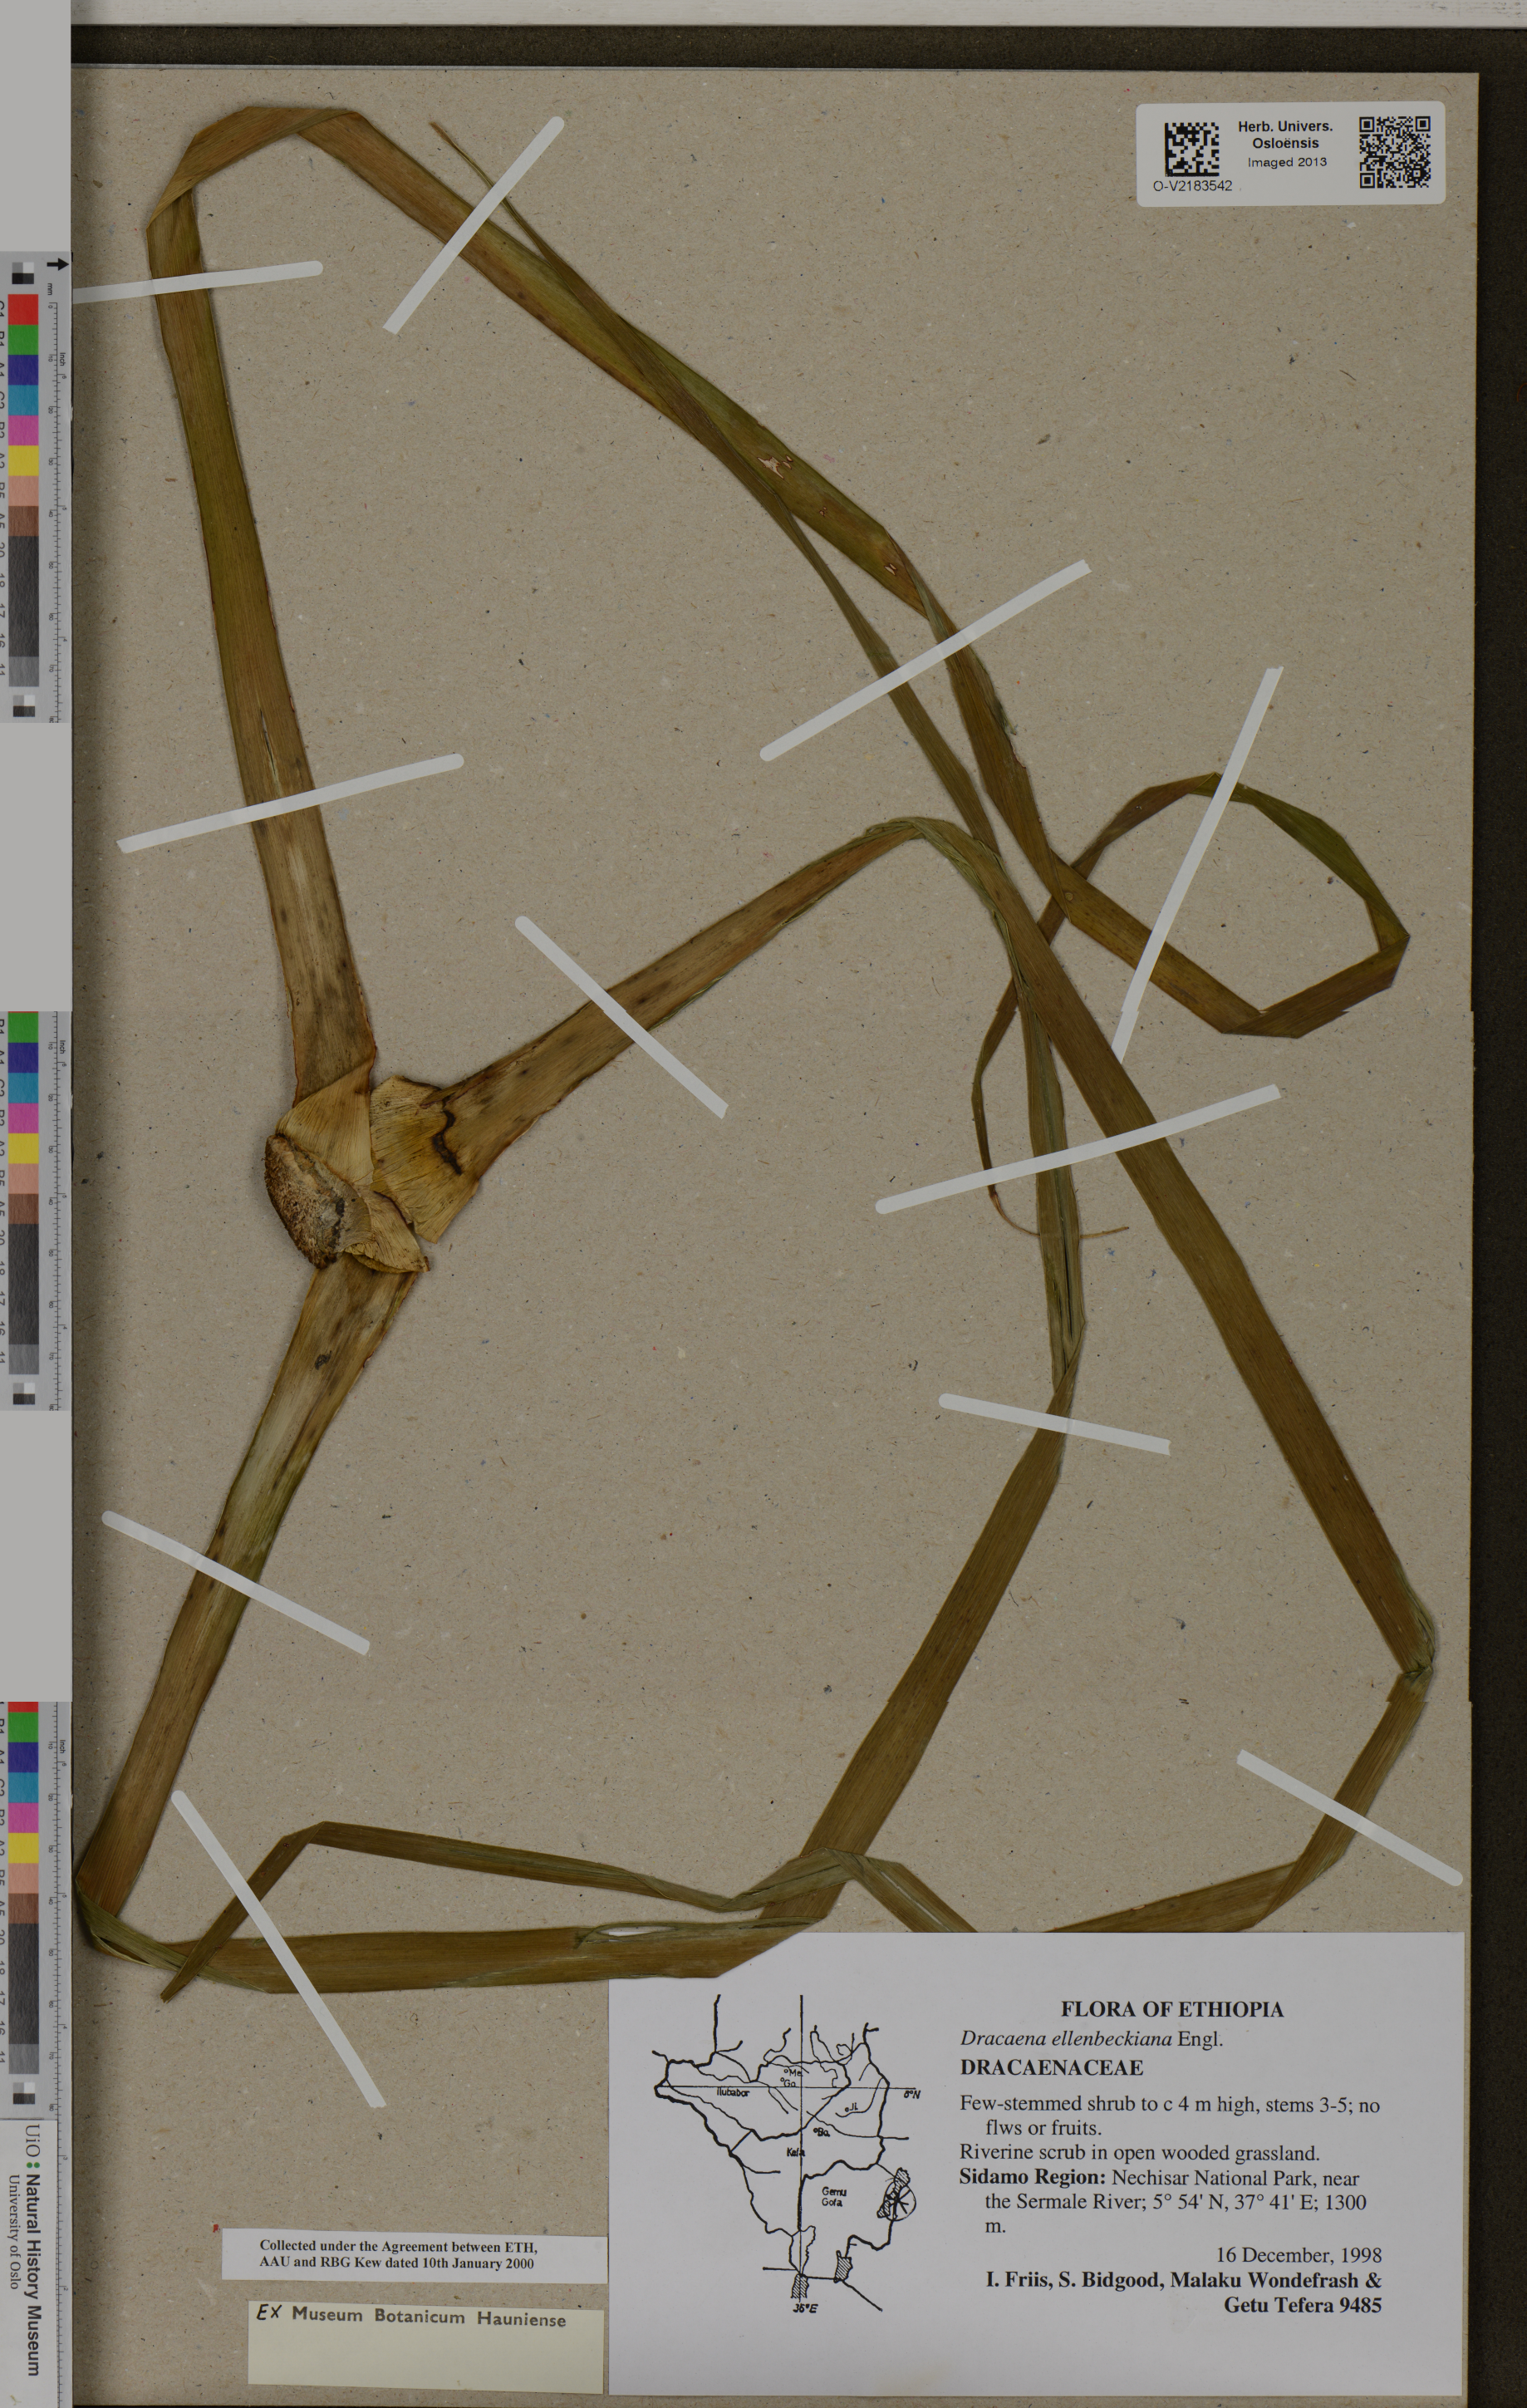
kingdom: Plantae
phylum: Tracheophyta
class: Liliopsida
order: Asparagales
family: Asparagaceae
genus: Dracaena
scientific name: Dracaena ellenbeckiana
